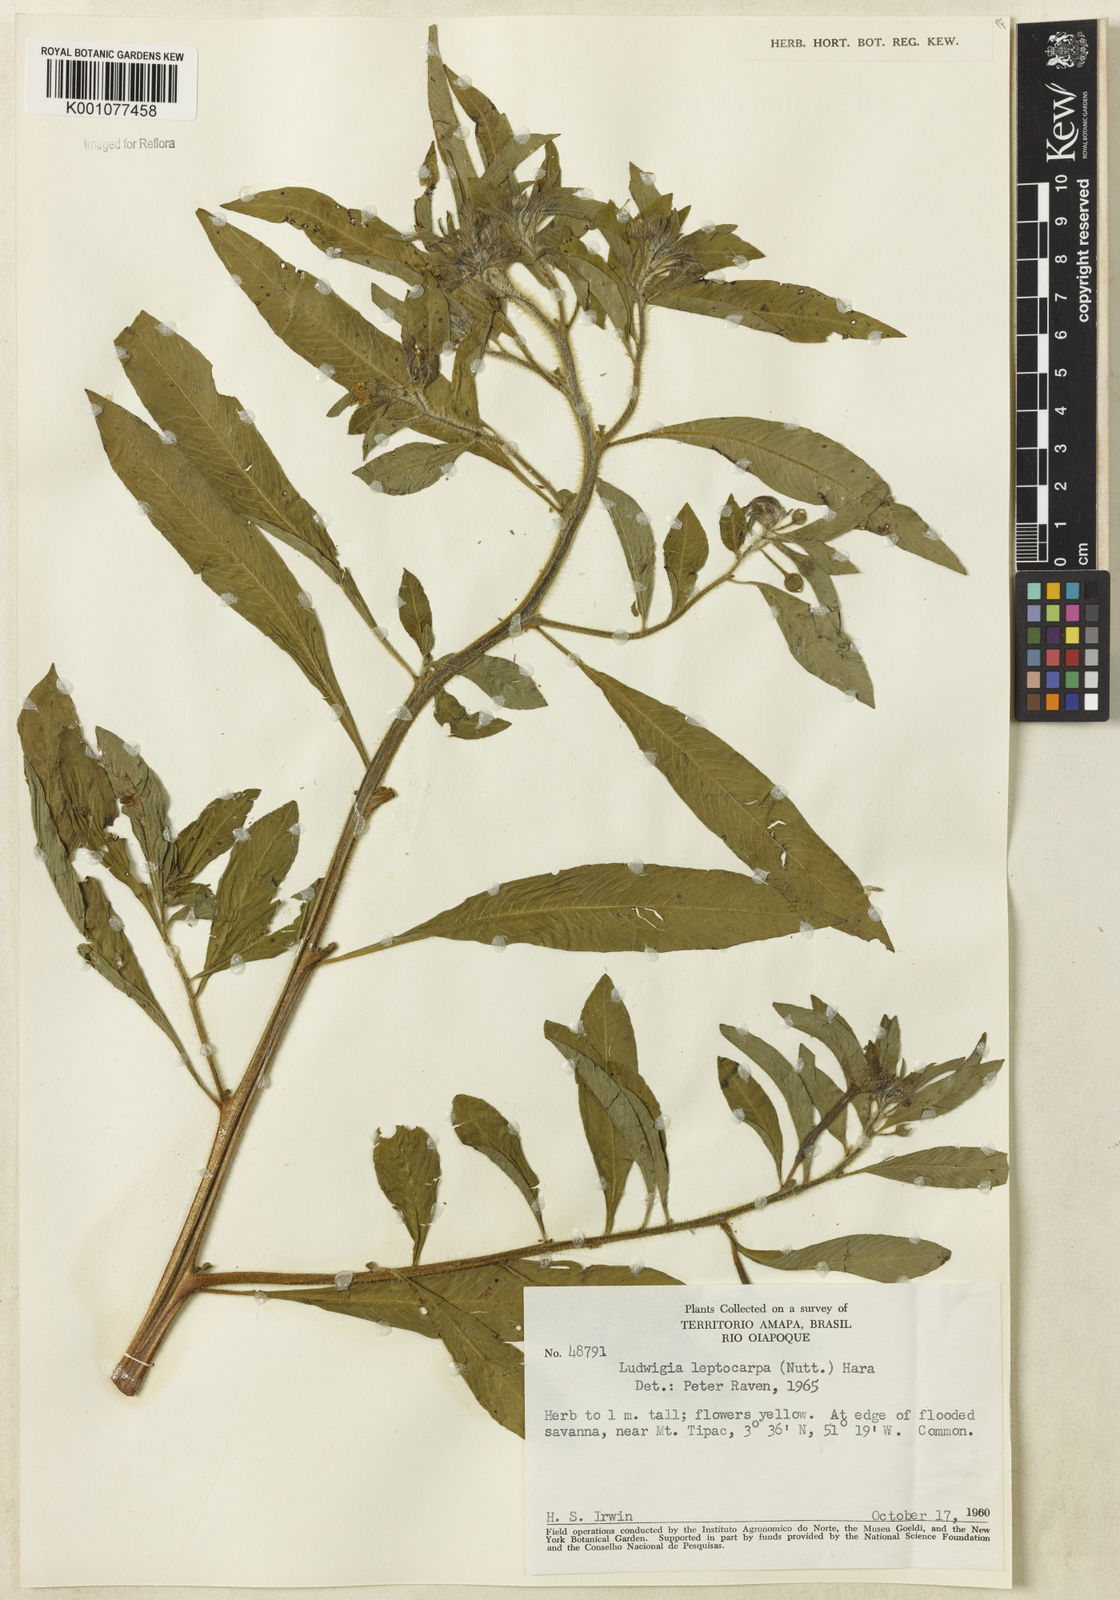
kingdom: Plantae
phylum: Tracheophyta
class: Magnoliopsida
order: Myrtales
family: Onagraceae
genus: Ludwigia
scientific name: Ludwigia leptocarpa
